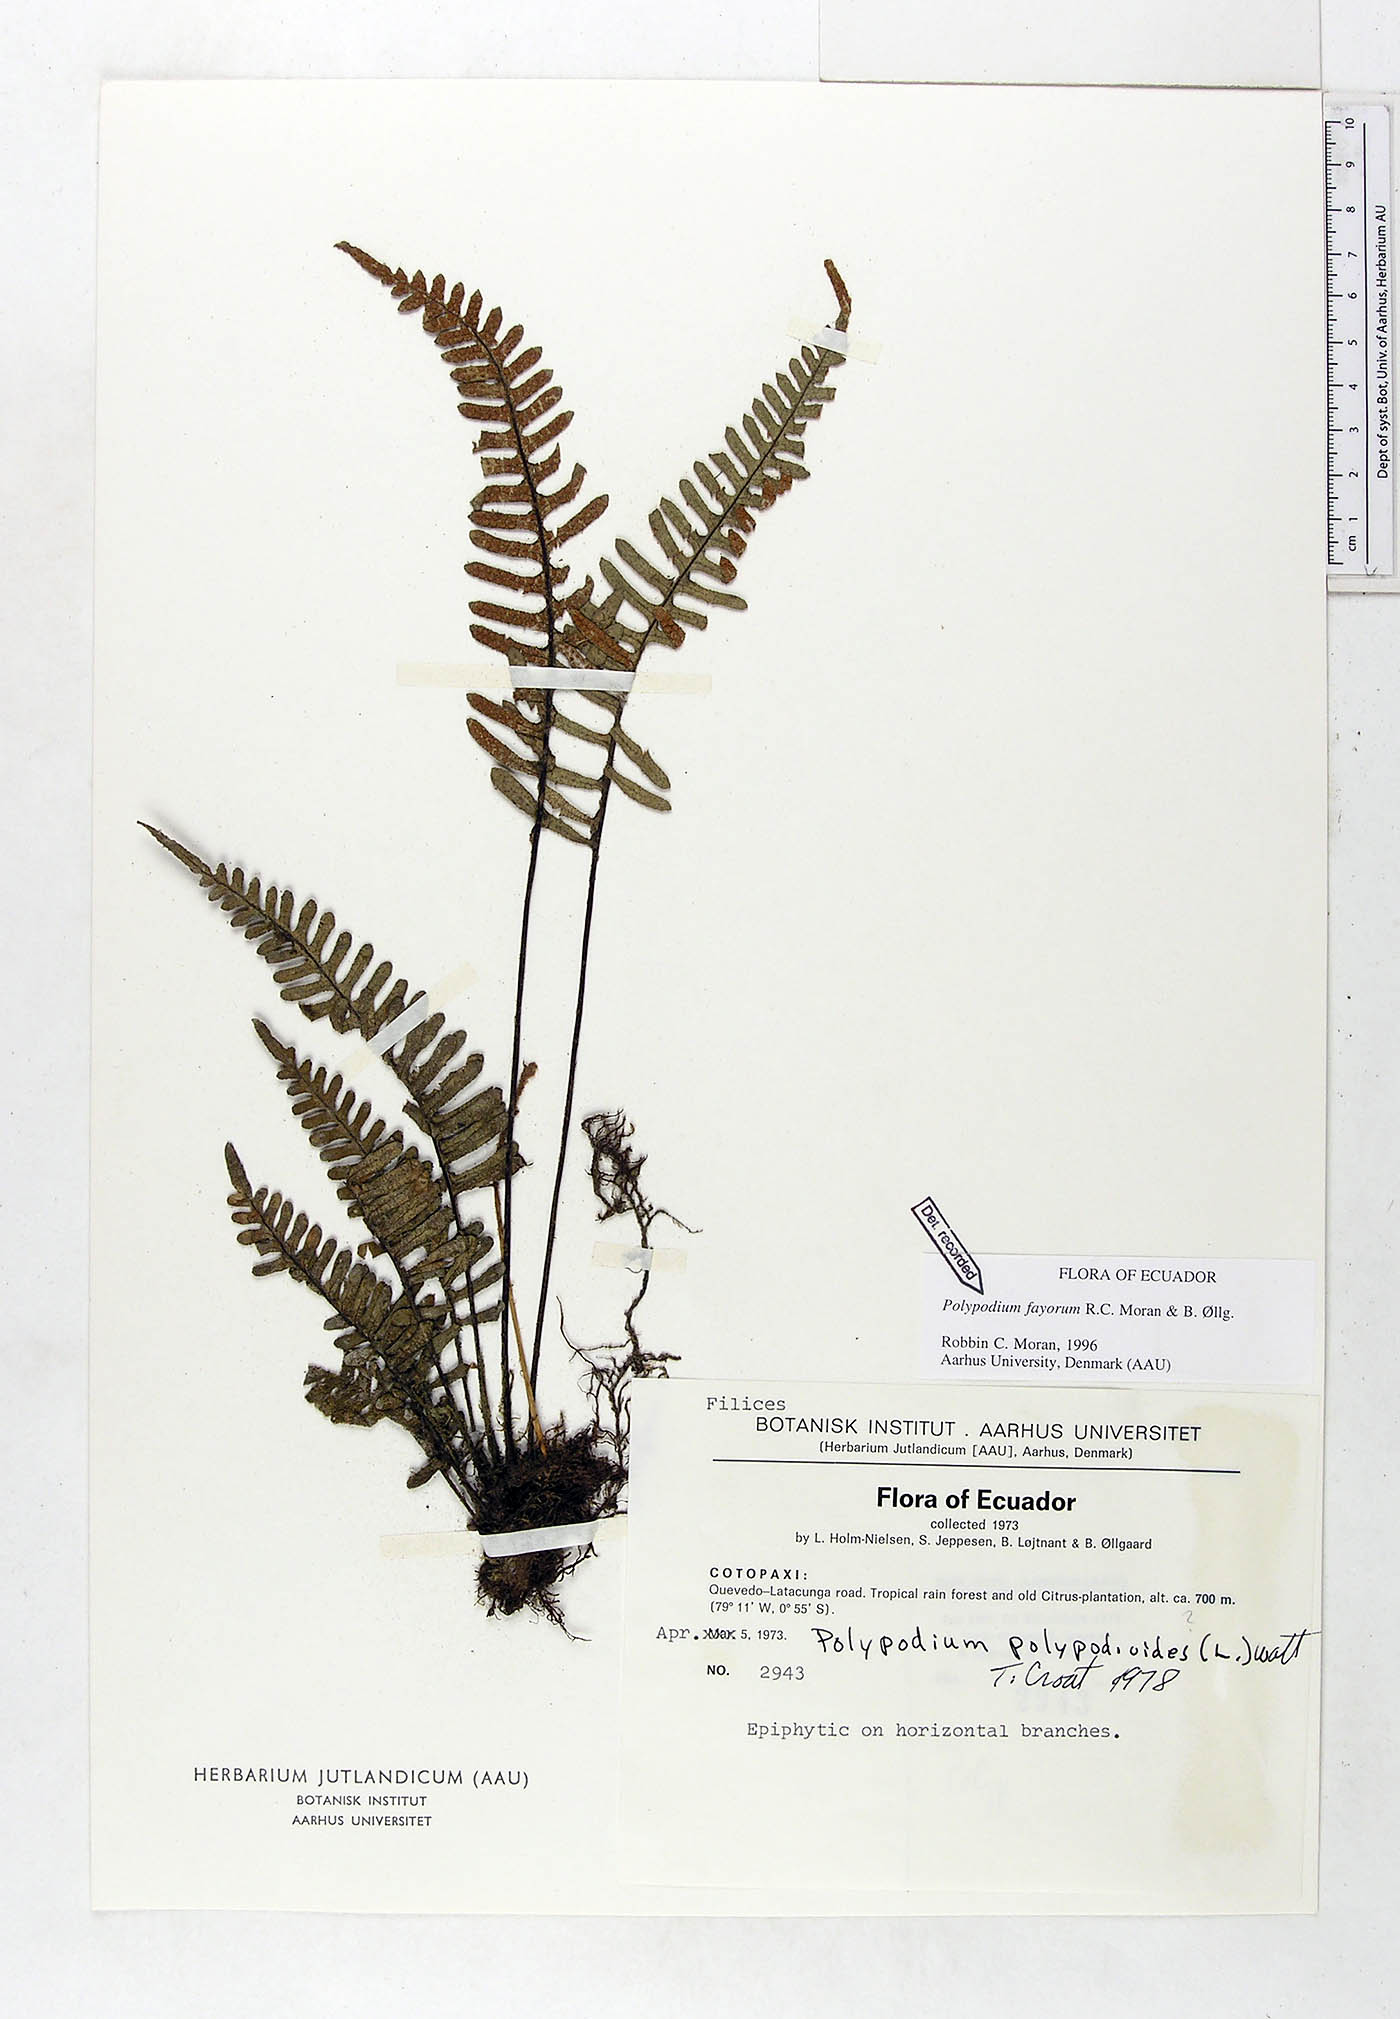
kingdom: Plantae
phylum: Tracheophyta
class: Polypodiopsida
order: Polypodiales
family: Polypodiaceae
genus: Pleopeltis
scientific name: Pleopeltis fayorum
